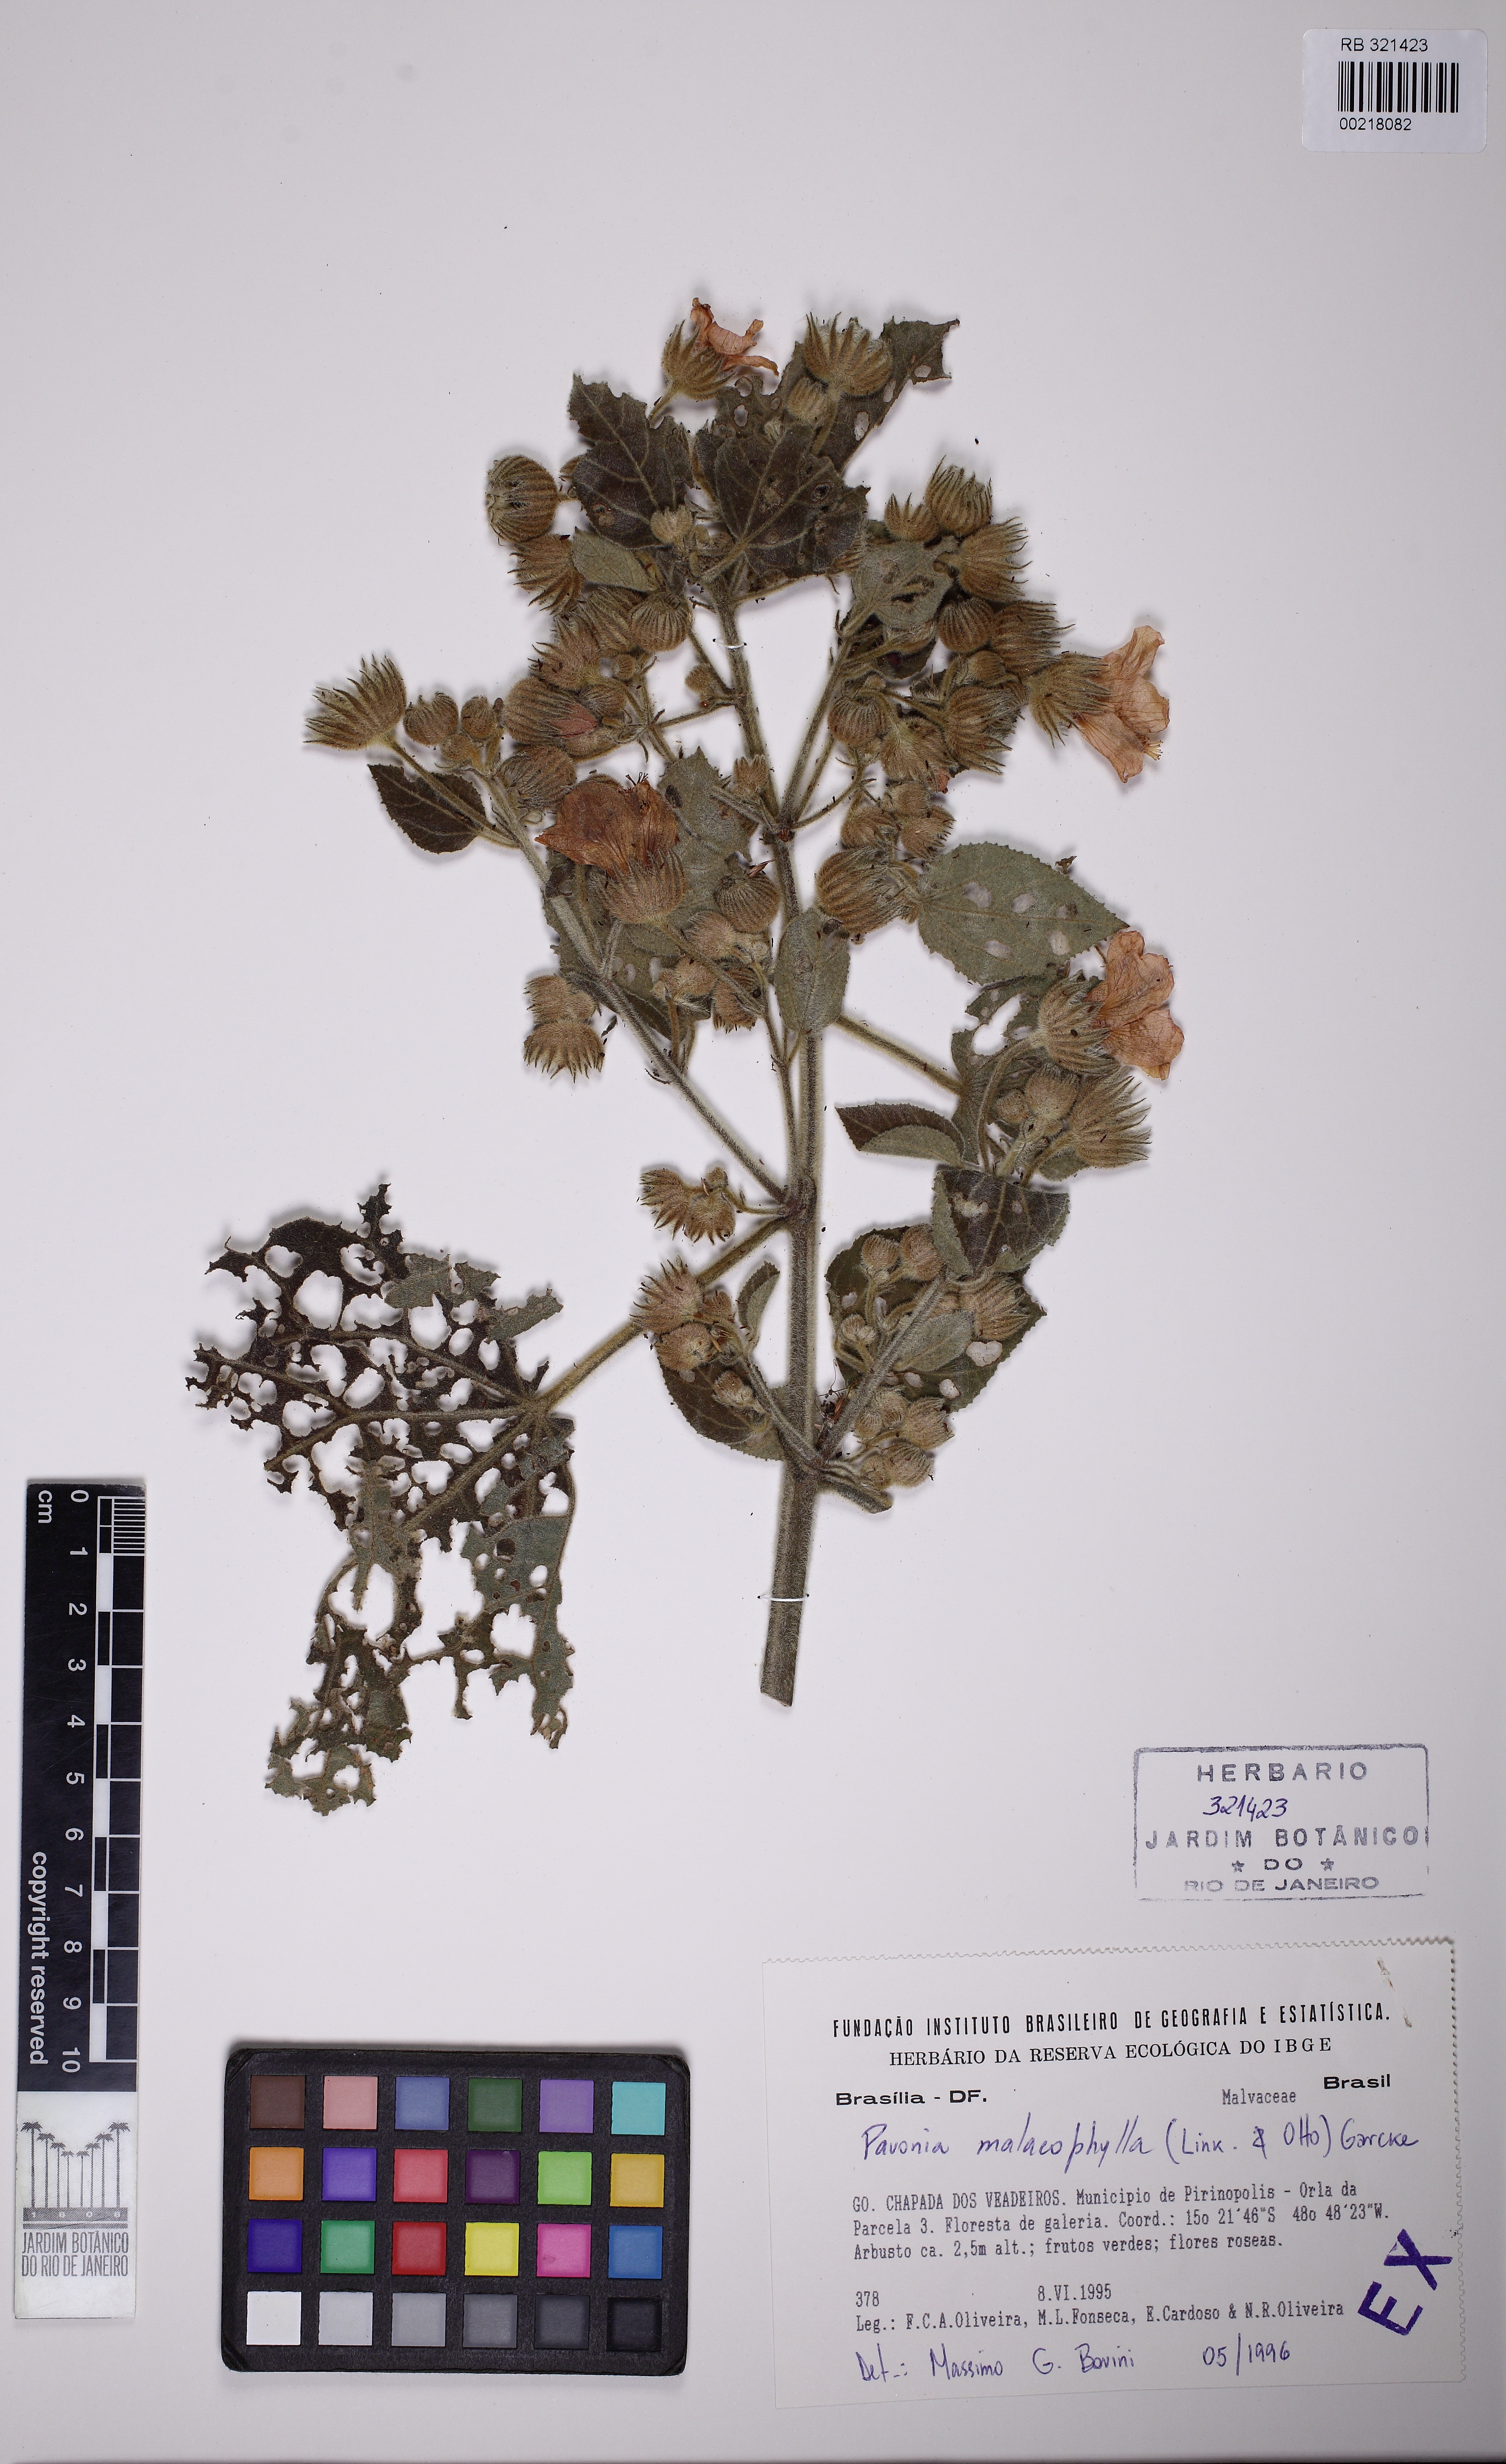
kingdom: Plantae
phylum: Tracheophyta
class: Magnoliopsida
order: Malvales
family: Malvaceae
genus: Pavonia
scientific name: Pavonia malacophylla
